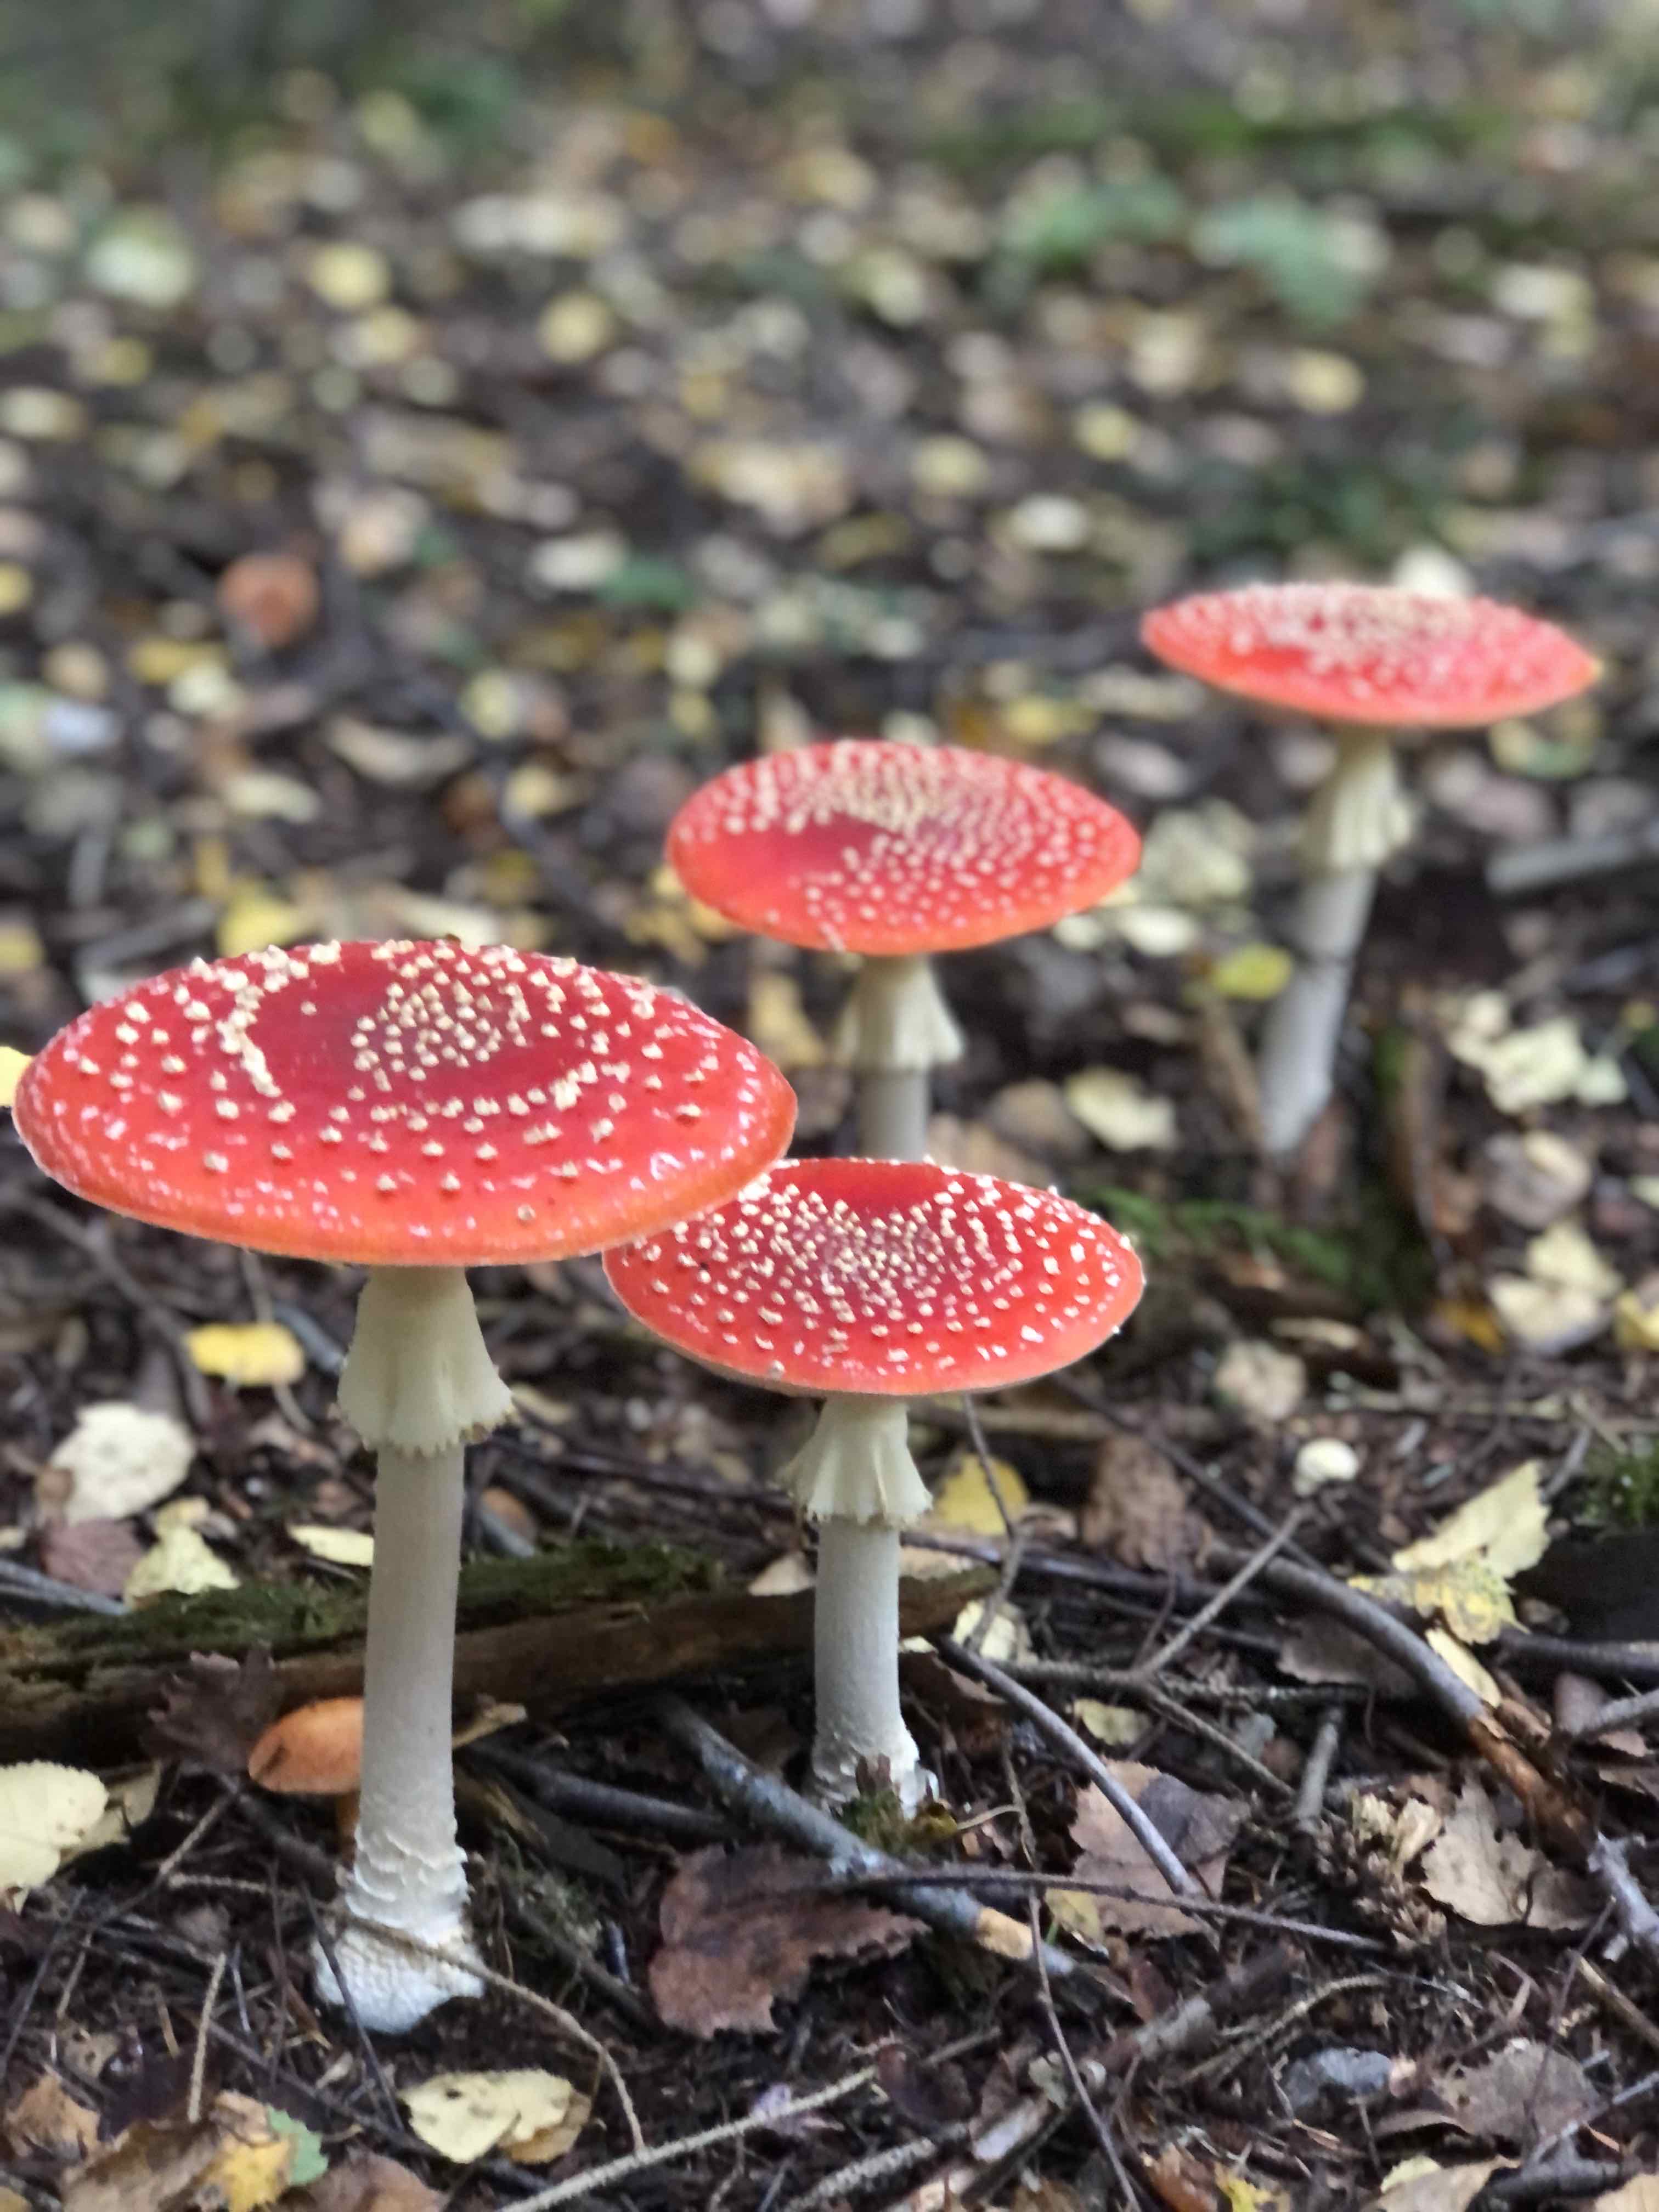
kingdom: Fungi
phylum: Basidiomycota
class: Agaricomycetes
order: Agaricales
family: Amanitaceae
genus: Amanita
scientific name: Amanita muscaria
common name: rød fluesvamp
